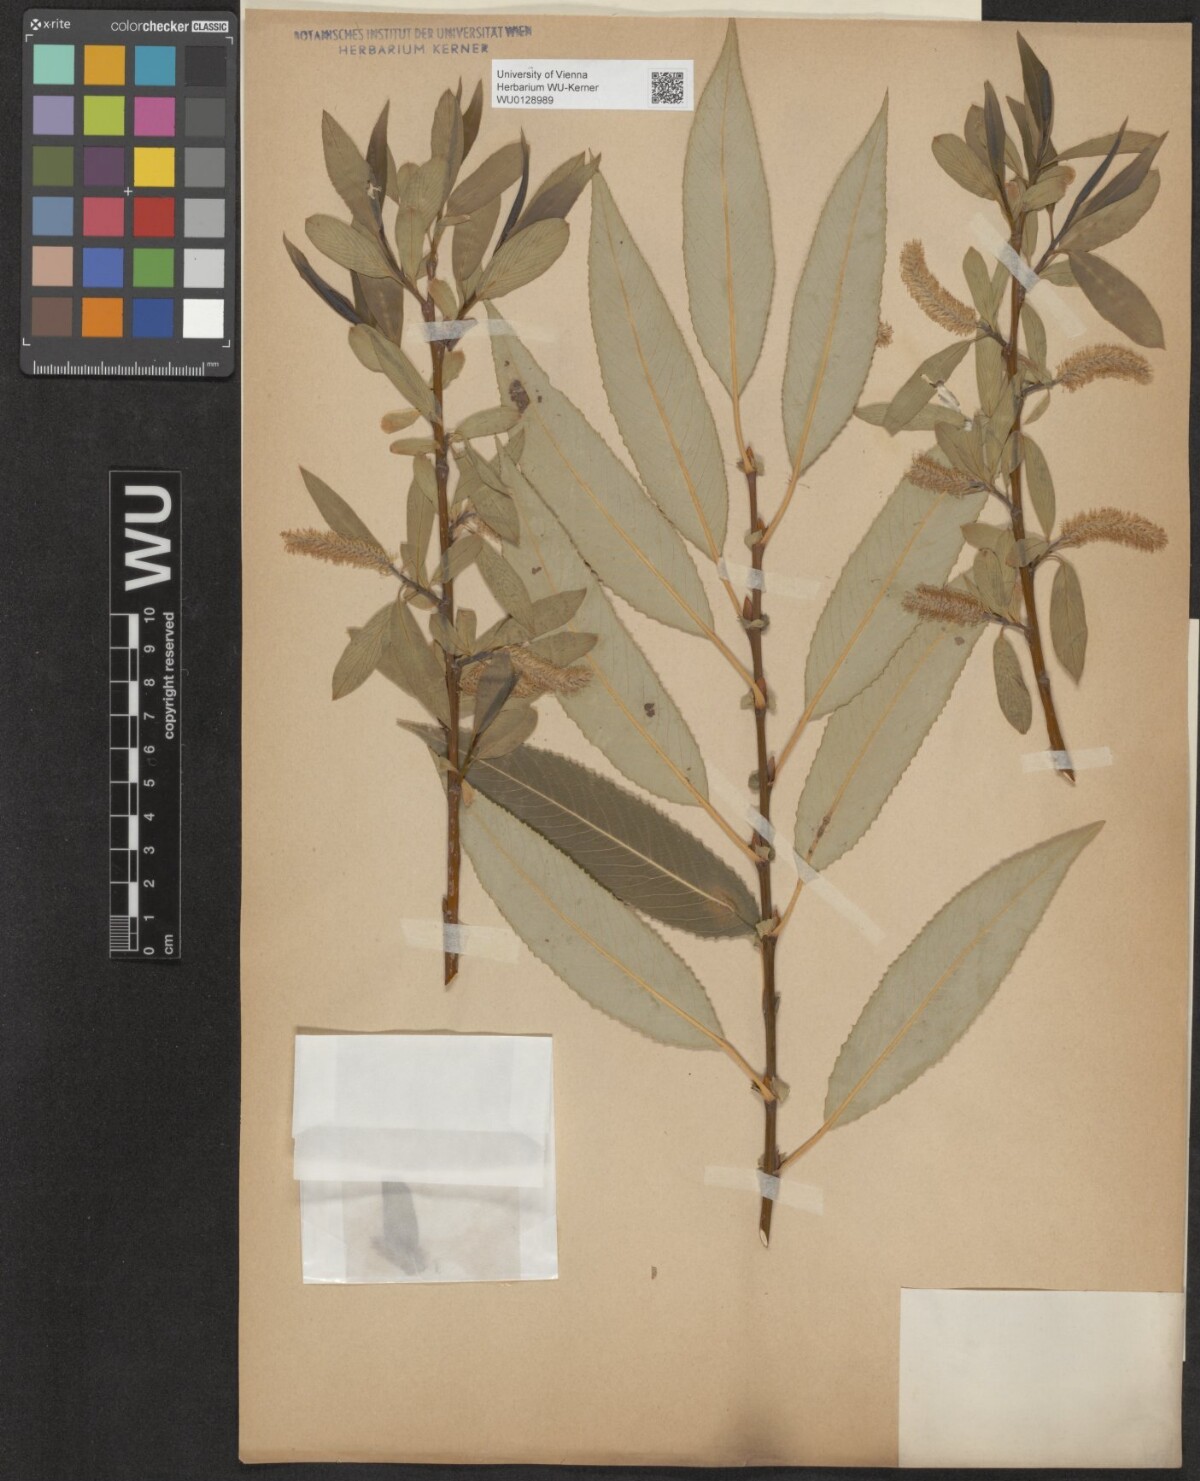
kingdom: Plantae
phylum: Tracheophyta
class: Magnoliopsida
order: Malpighiales
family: Salicaceae
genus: Salix
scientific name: Salix fragilis
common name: Crack willow
